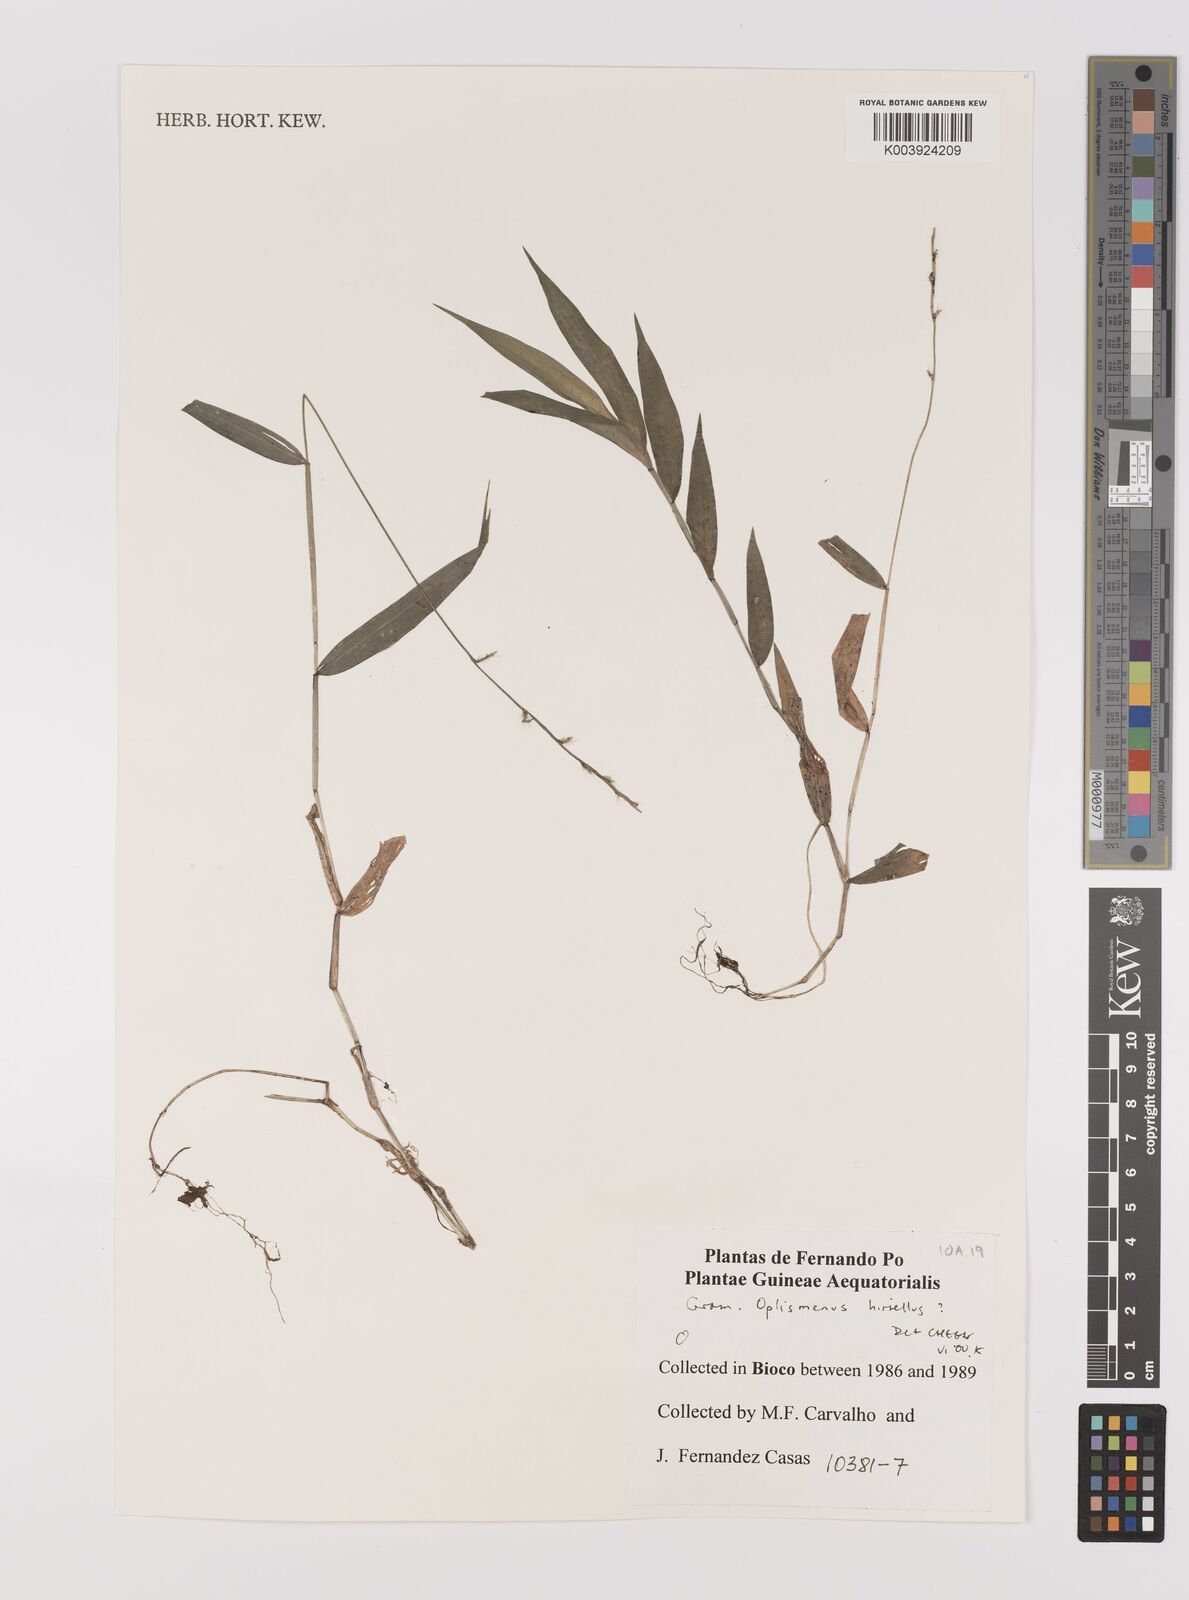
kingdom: Plantae
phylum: Tracheophyta
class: Liliopsida
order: Poales
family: Poaceae
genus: Oplismenus
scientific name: Oplismenus hirtellus
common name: Basketgrass
